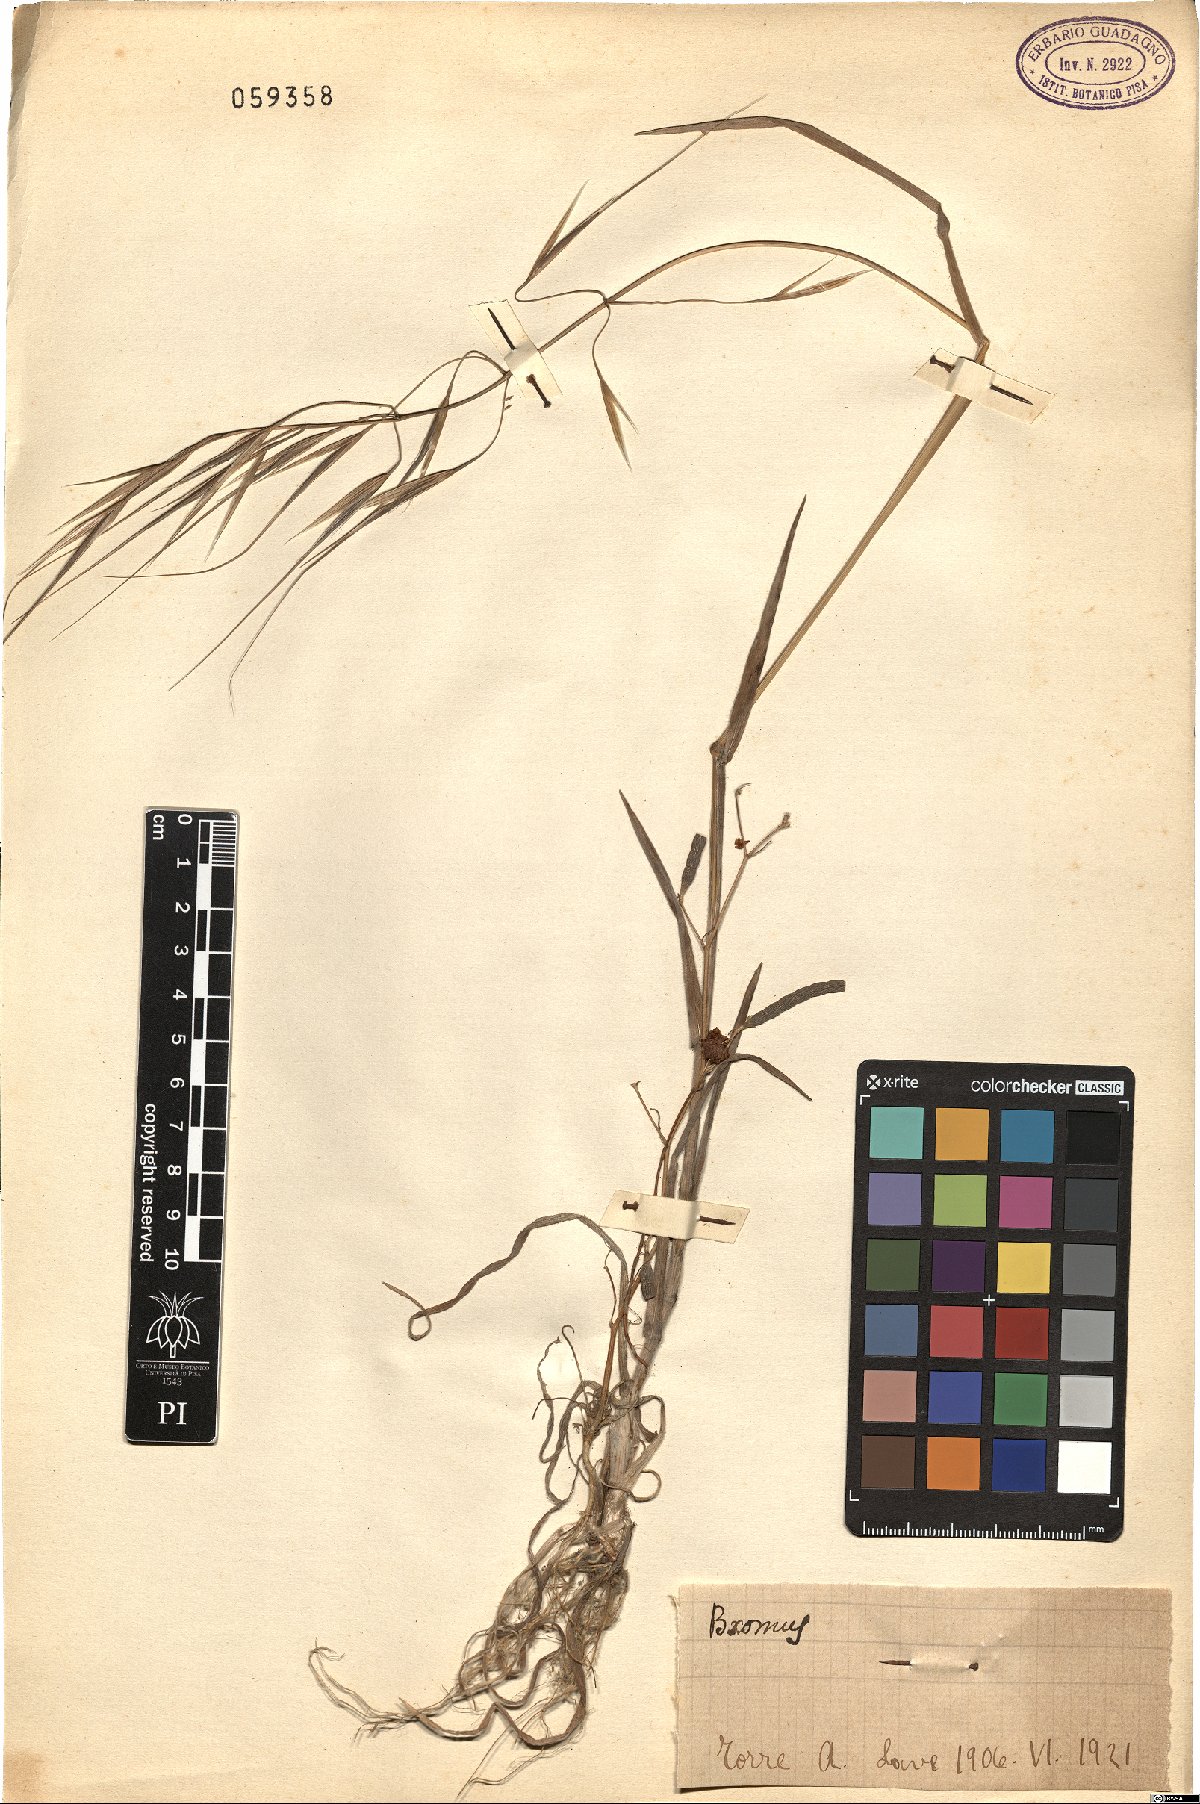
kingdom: Plantae
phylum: Tracheophyta
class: Liliopsida
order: Poales
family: Poaceae
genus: Bromus
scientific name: Bromus
